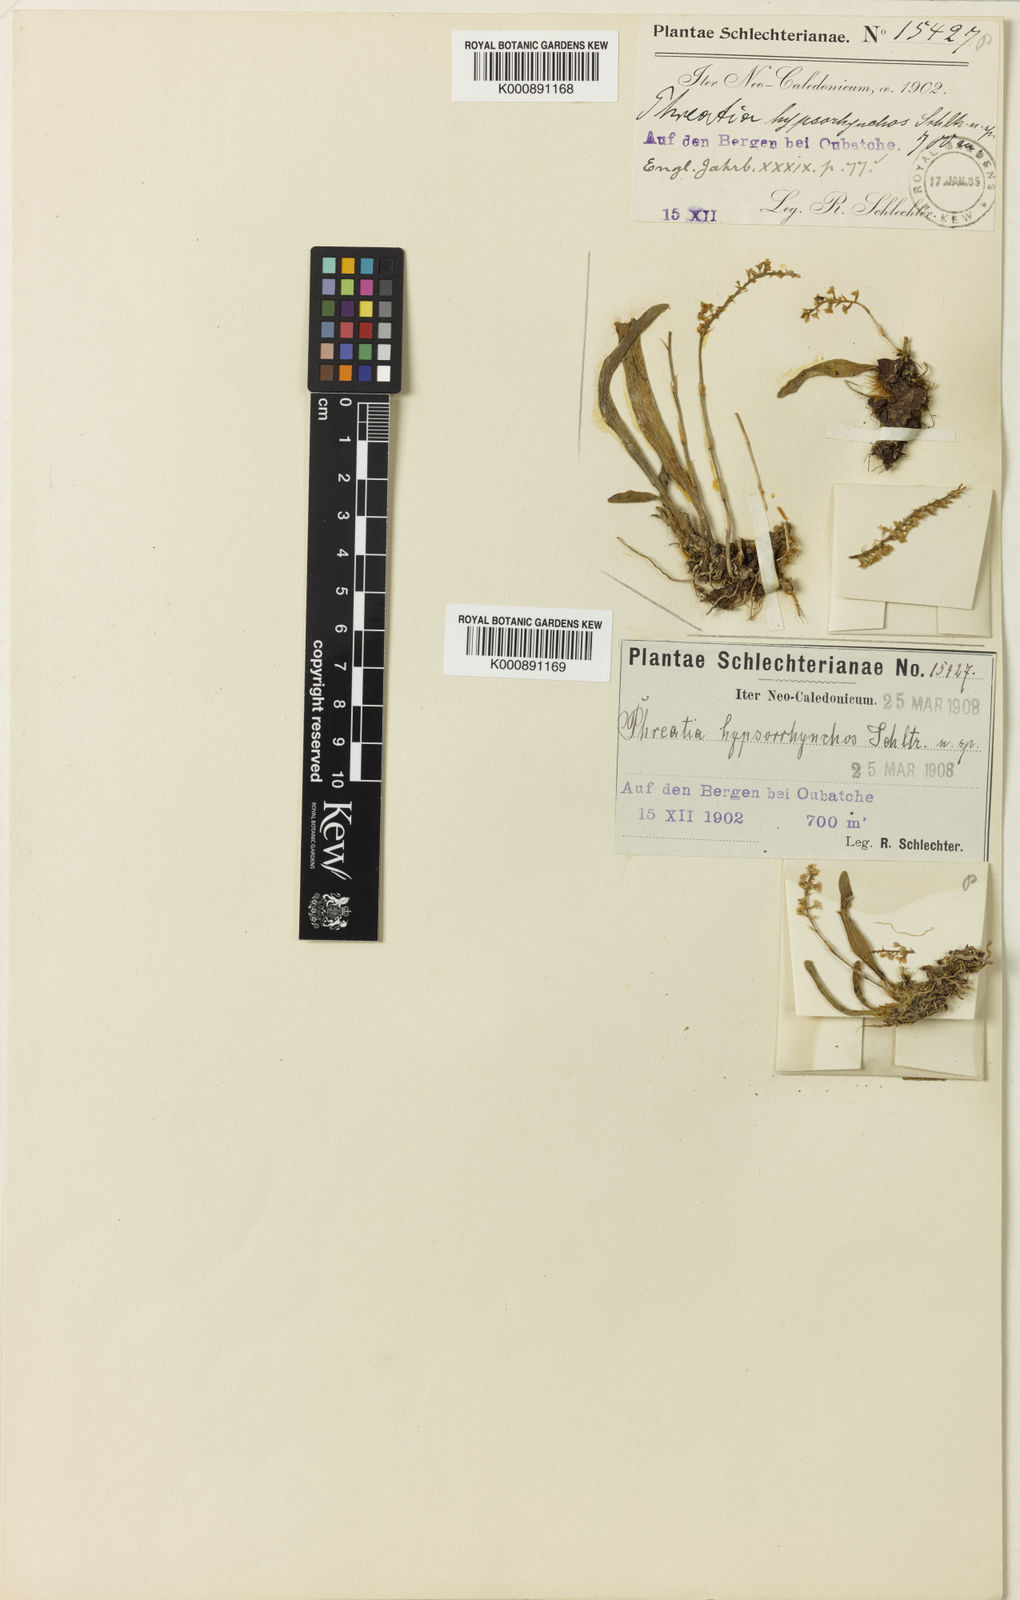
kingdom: Plantae
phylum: Tracheophyta
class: Liliopsida
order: Asparagales
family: Orchidaceae
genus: Phreatia
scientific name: Phreatia hypsorrhynchos
